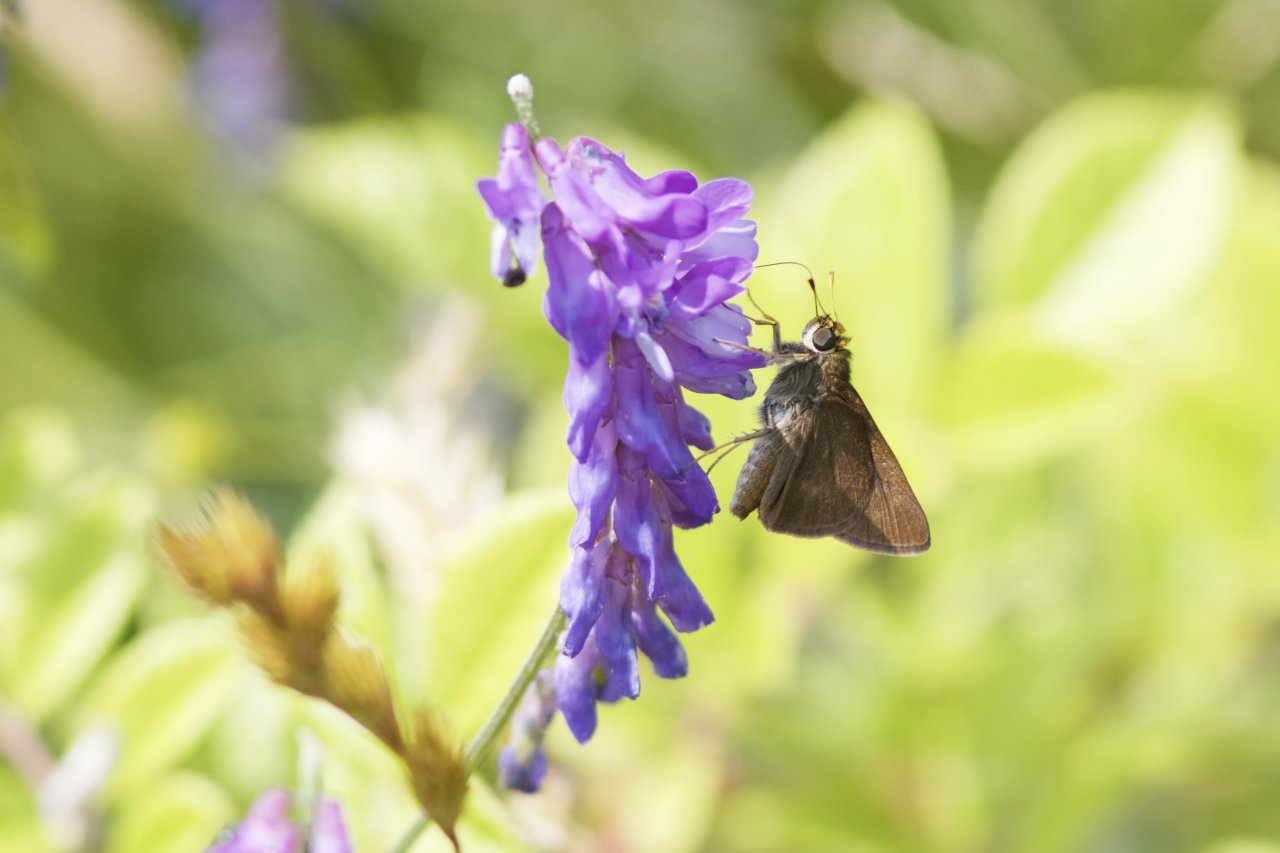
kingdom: Animalia
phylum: Arthropoda
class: Insecta
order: Lepidoptera
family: Hesperiidae
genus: Euphyes
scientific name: Euphyes vestris
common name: Dun Skipper
